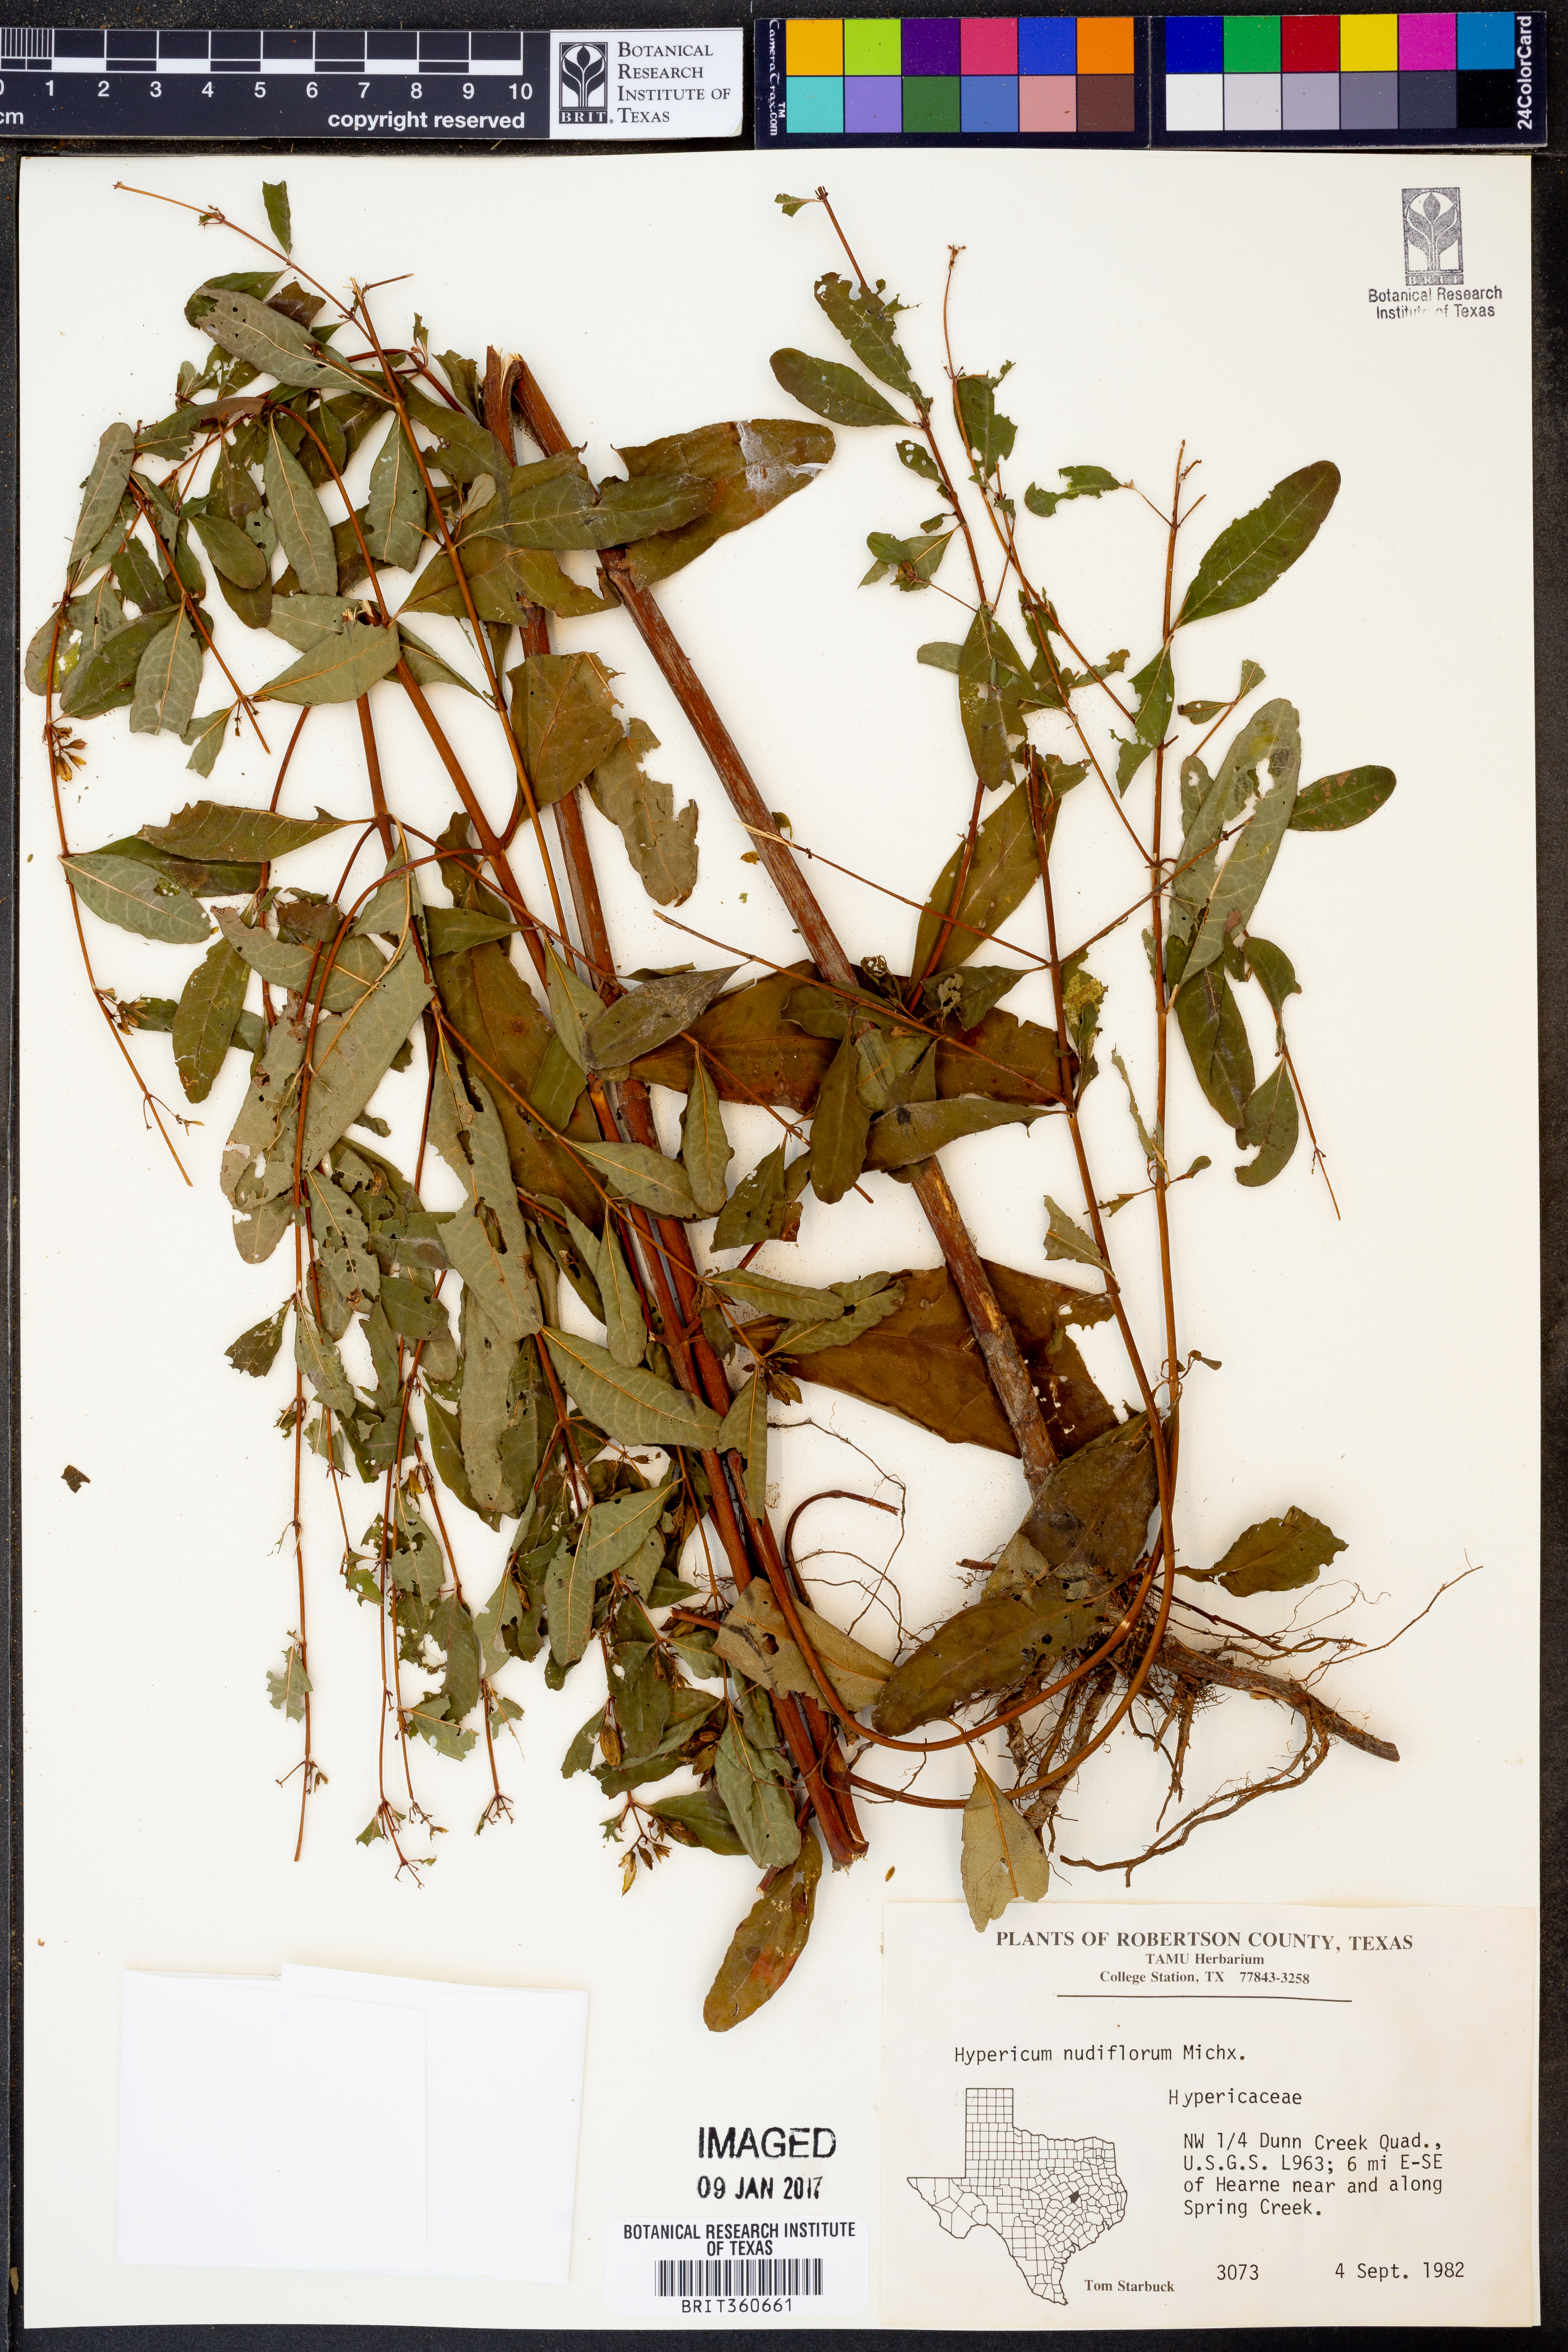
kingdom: Plantae
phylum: Tracheophyta
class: Magnoliopsida
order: Malpighiales
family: Hypericaceae
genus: Hypericum
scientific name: Hypericum nudiflorum
